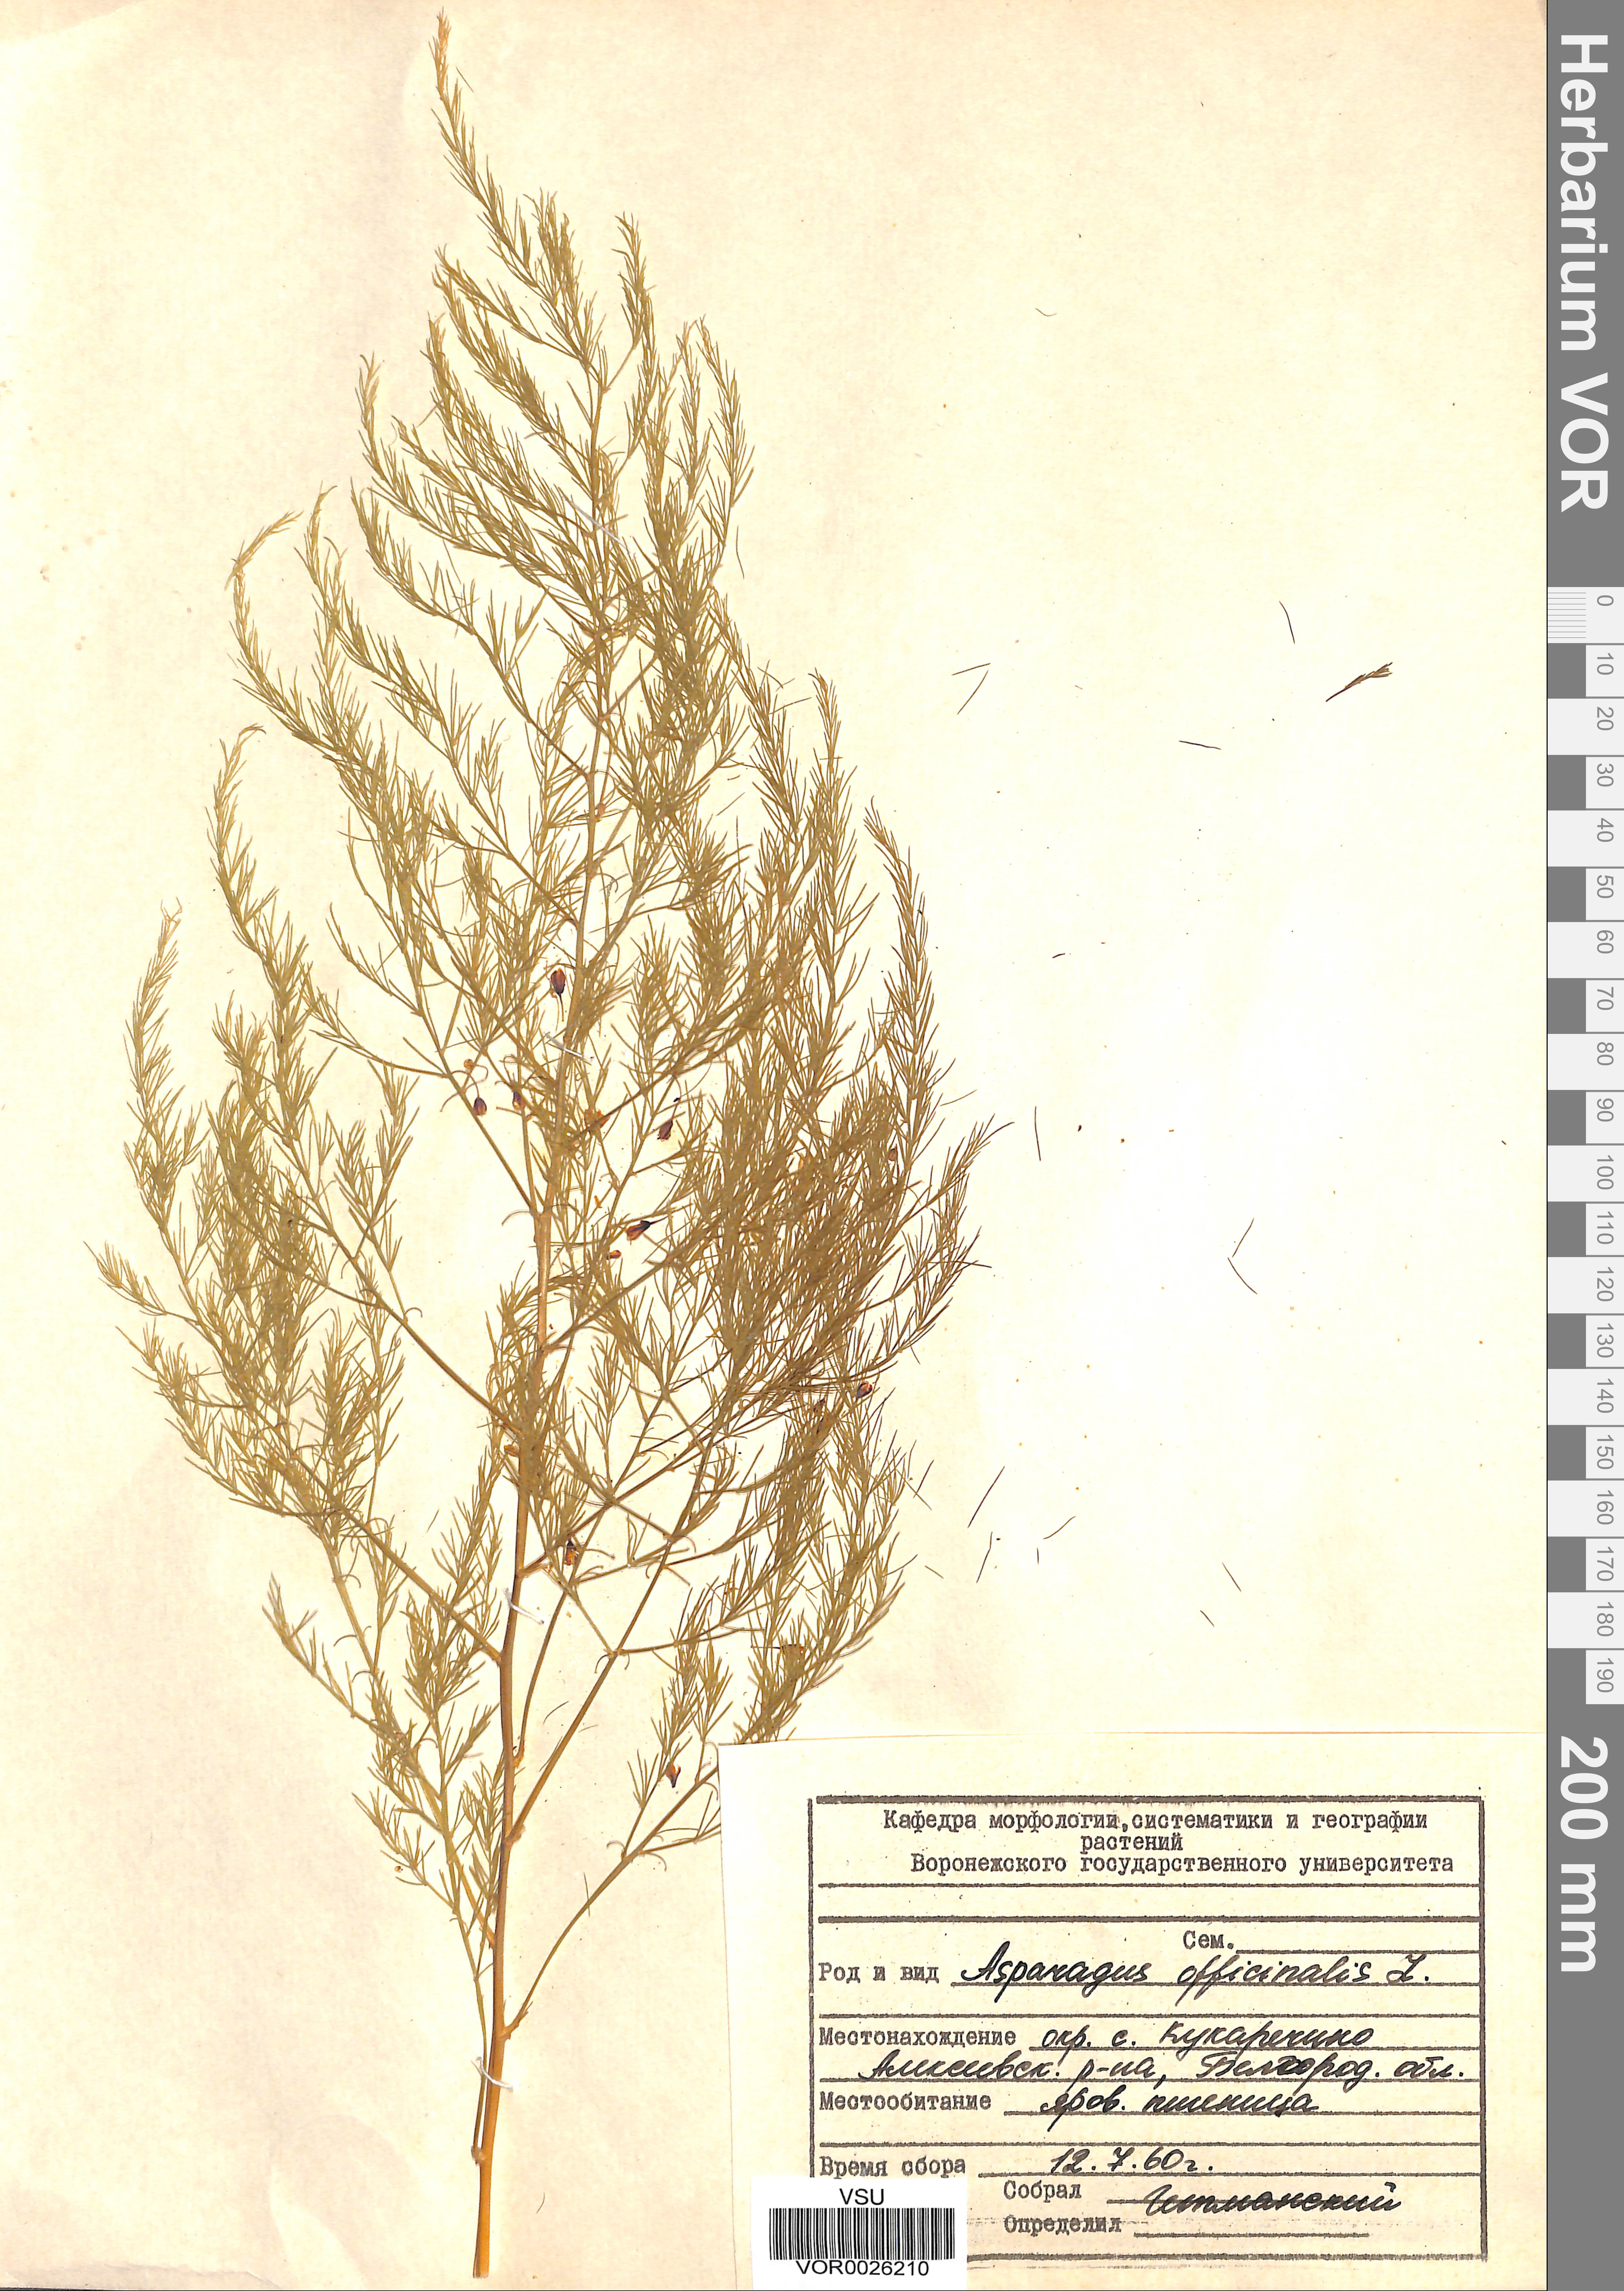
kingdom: Plantae
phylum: Tracheophyta
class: Liliopsida
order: Asparagales
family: Asparagaceae
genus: Asparagus
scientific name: Asparagus officinalis
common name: Garden asparagus
